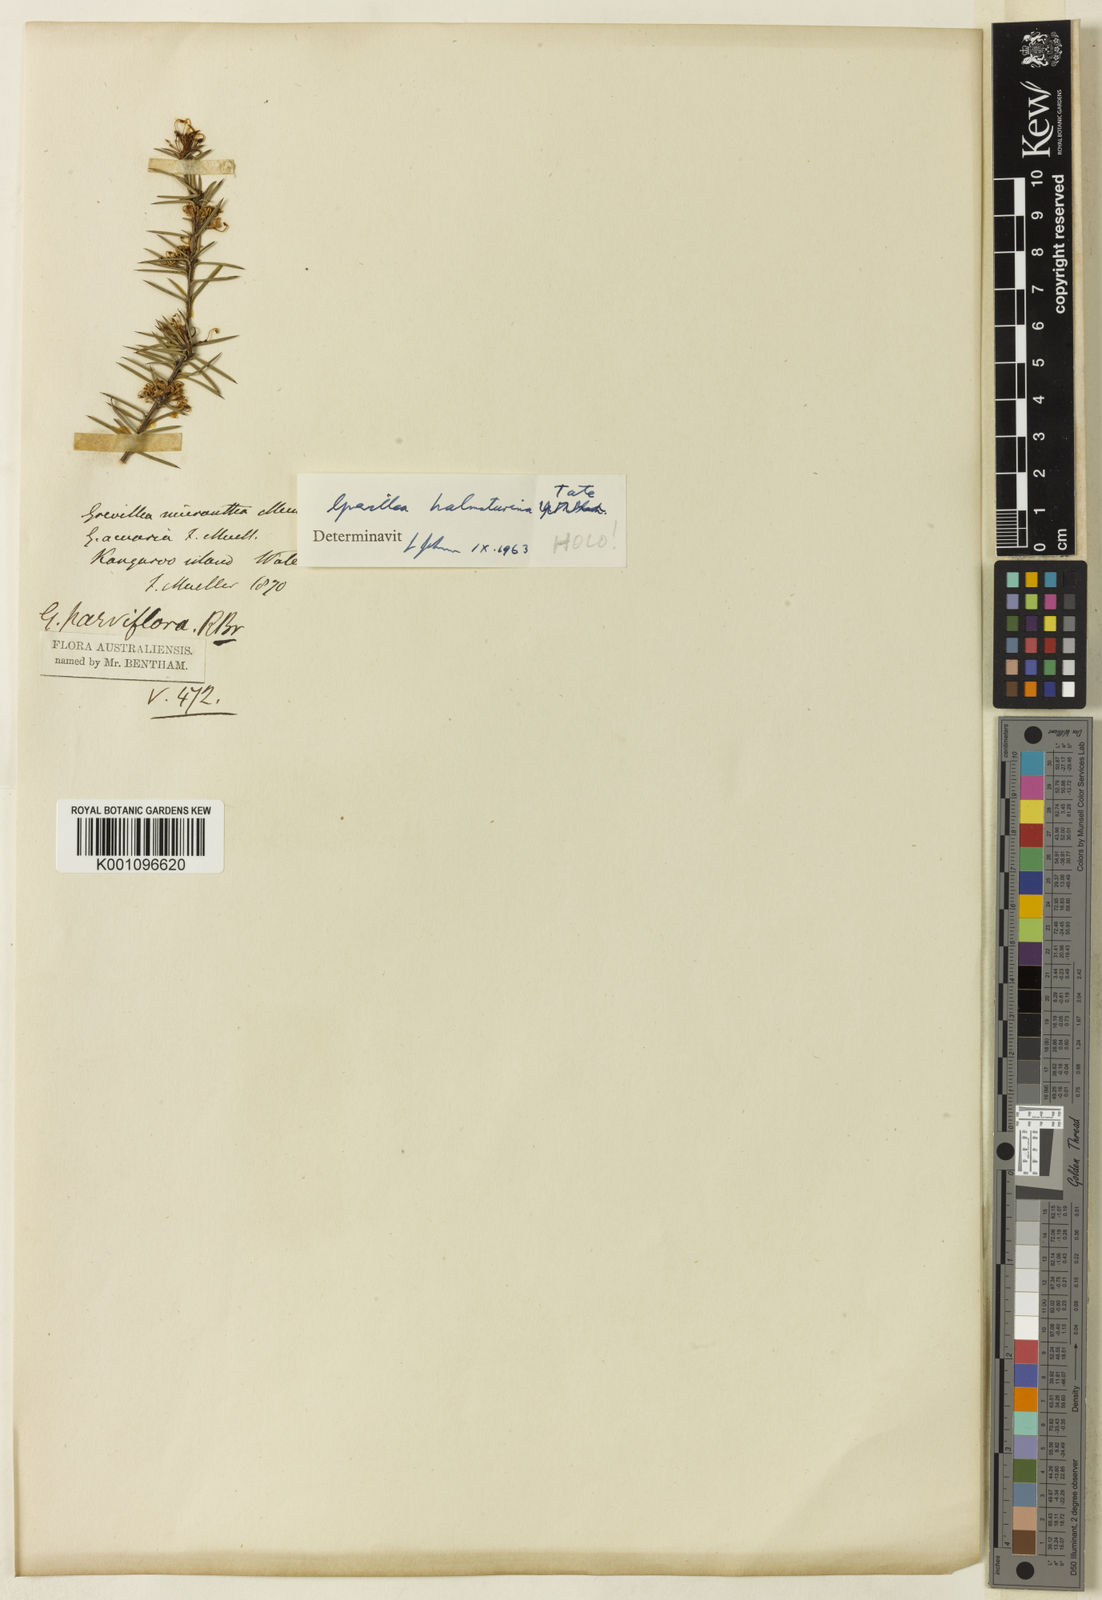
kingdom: Plantae
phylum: Tracheophyta
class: Magnoliopsida
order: Proteales
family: Proteaceae
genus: Grevillea
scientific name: Grevillea halmaturina
